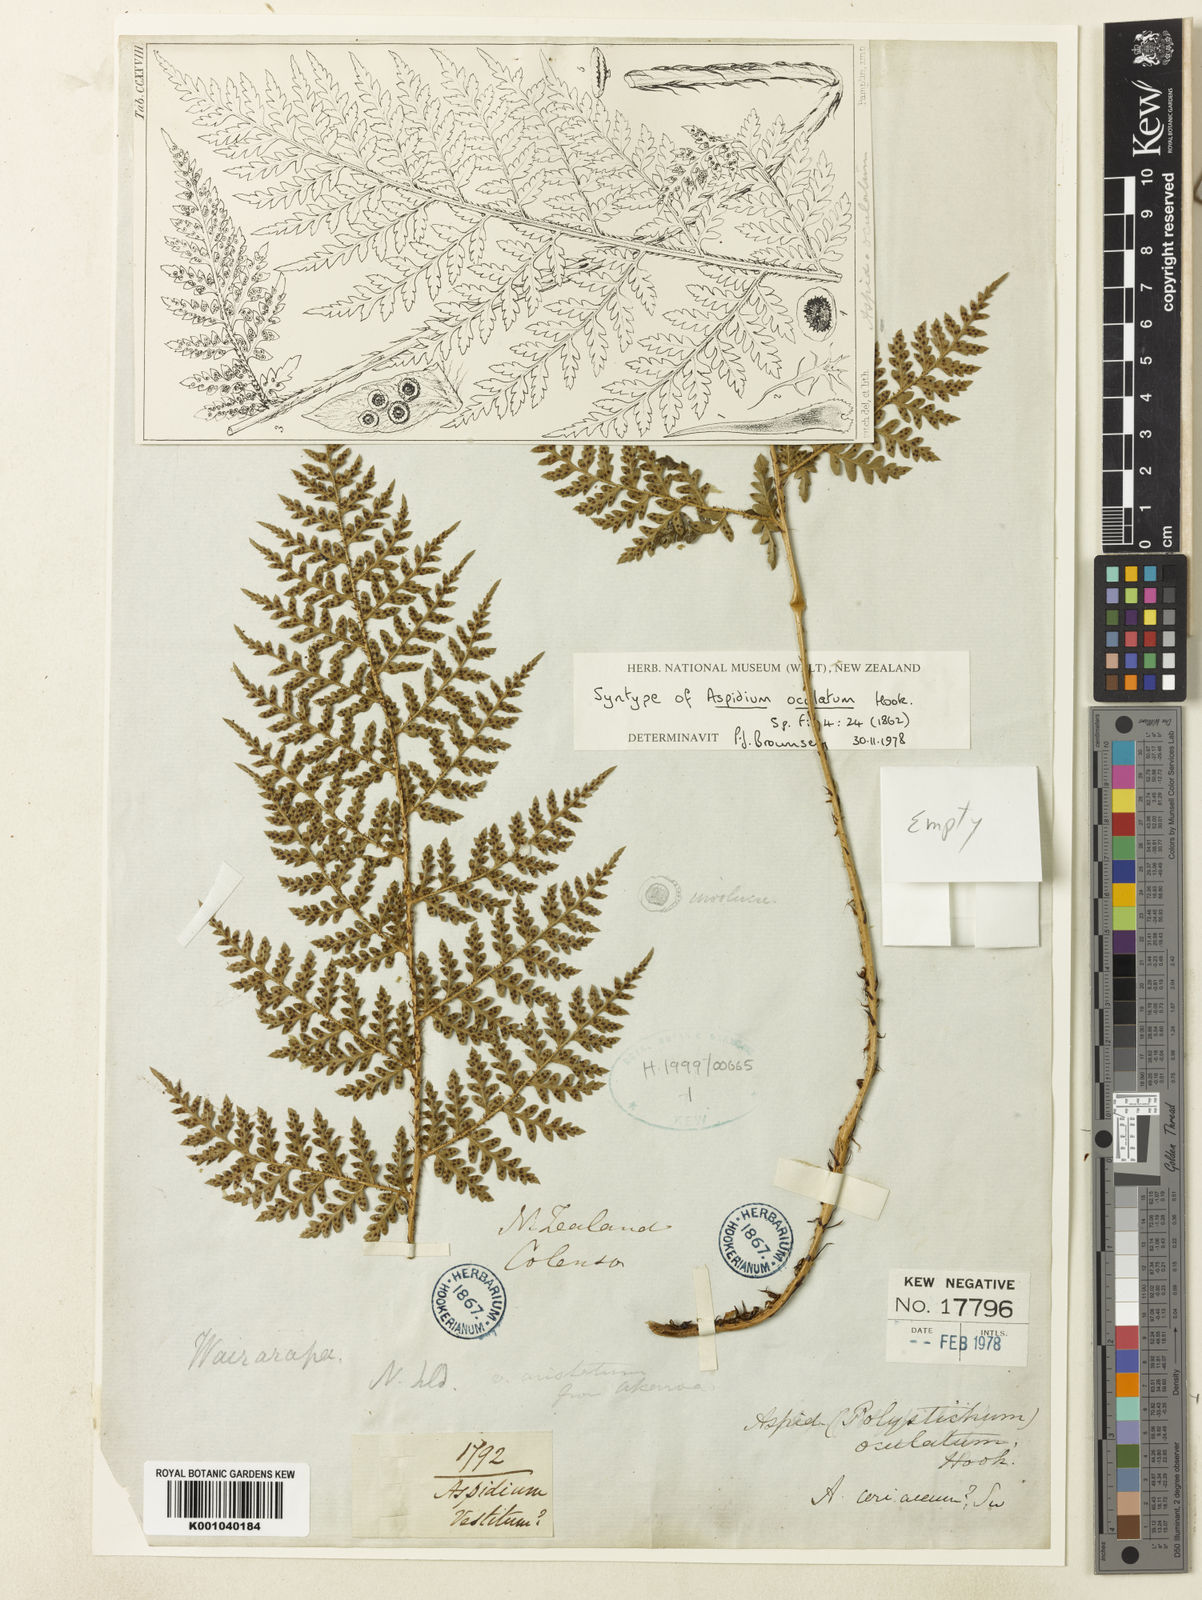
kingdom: Plantae
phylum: Tracheophyta
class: Polypodiopsida
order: Polypodiales
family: Dryopteridaceae
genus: Polystichum
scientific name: Polystichum neozelandicum
